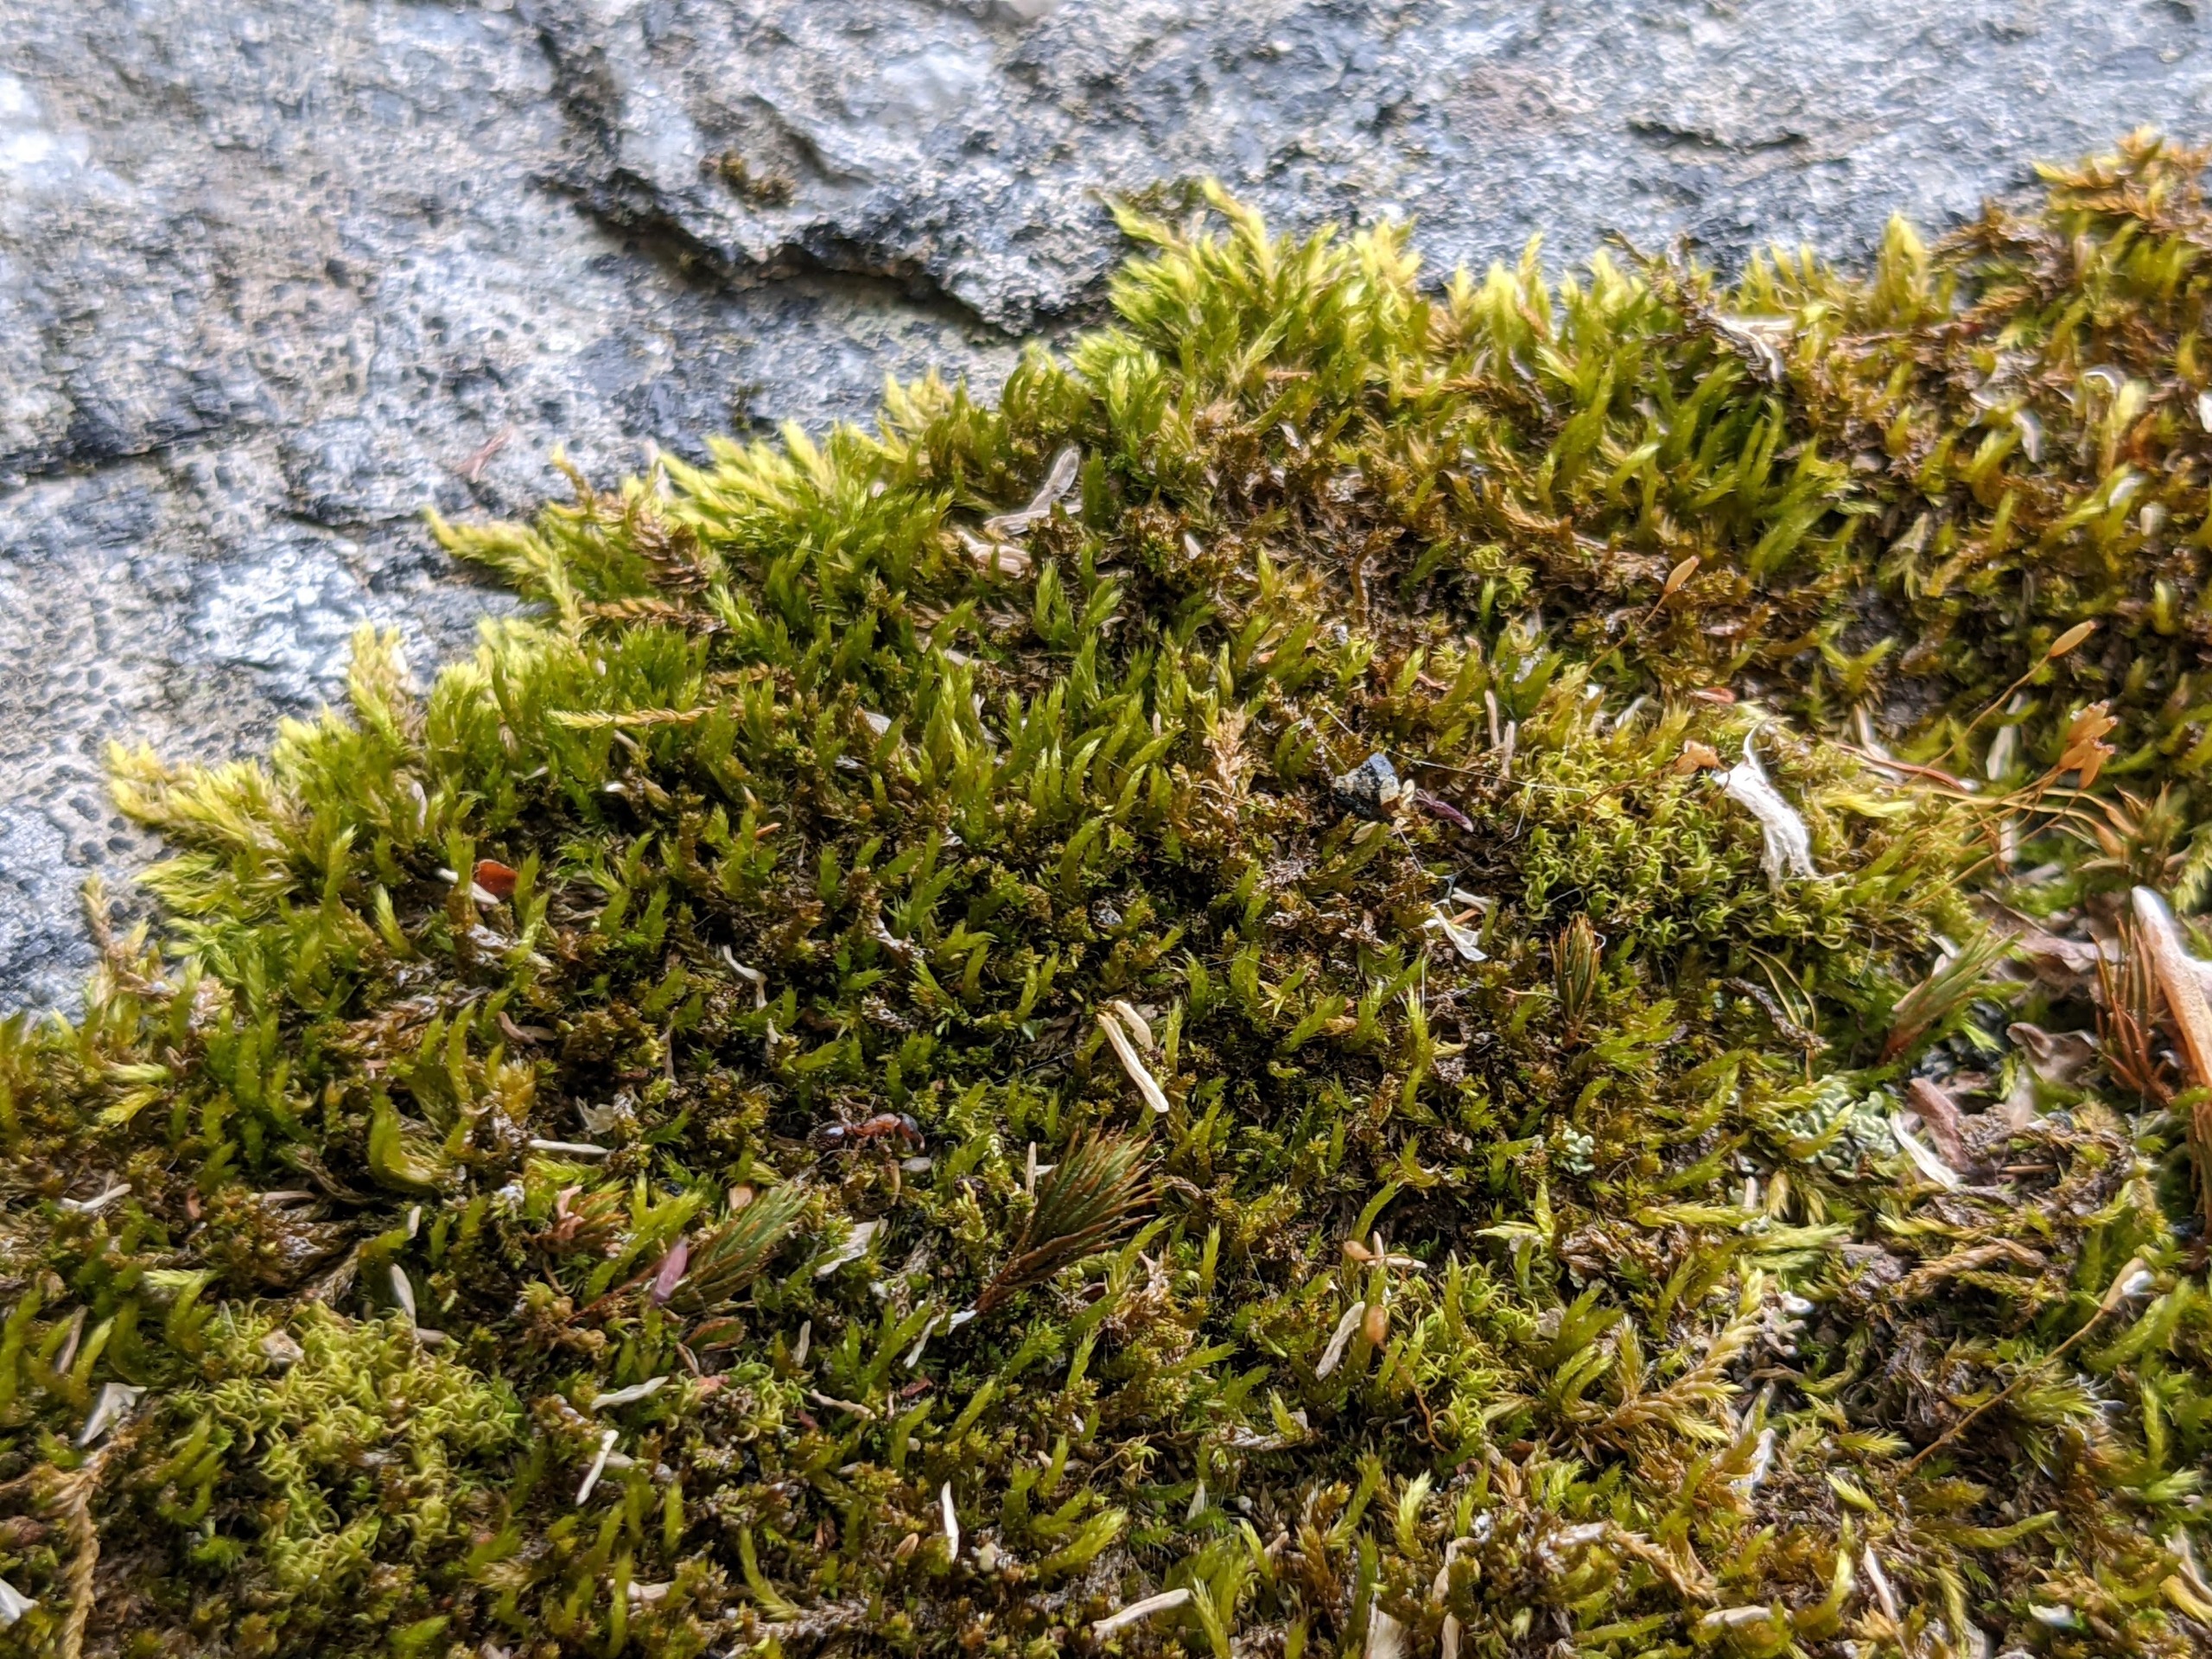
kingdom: Plantae
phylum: Bryophyta
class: Bryopsida
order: Hypnales
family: Pylaisiadelphaceae
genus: Platygyrium
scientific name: Platygyrium repens
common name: Mørk yngleknop
